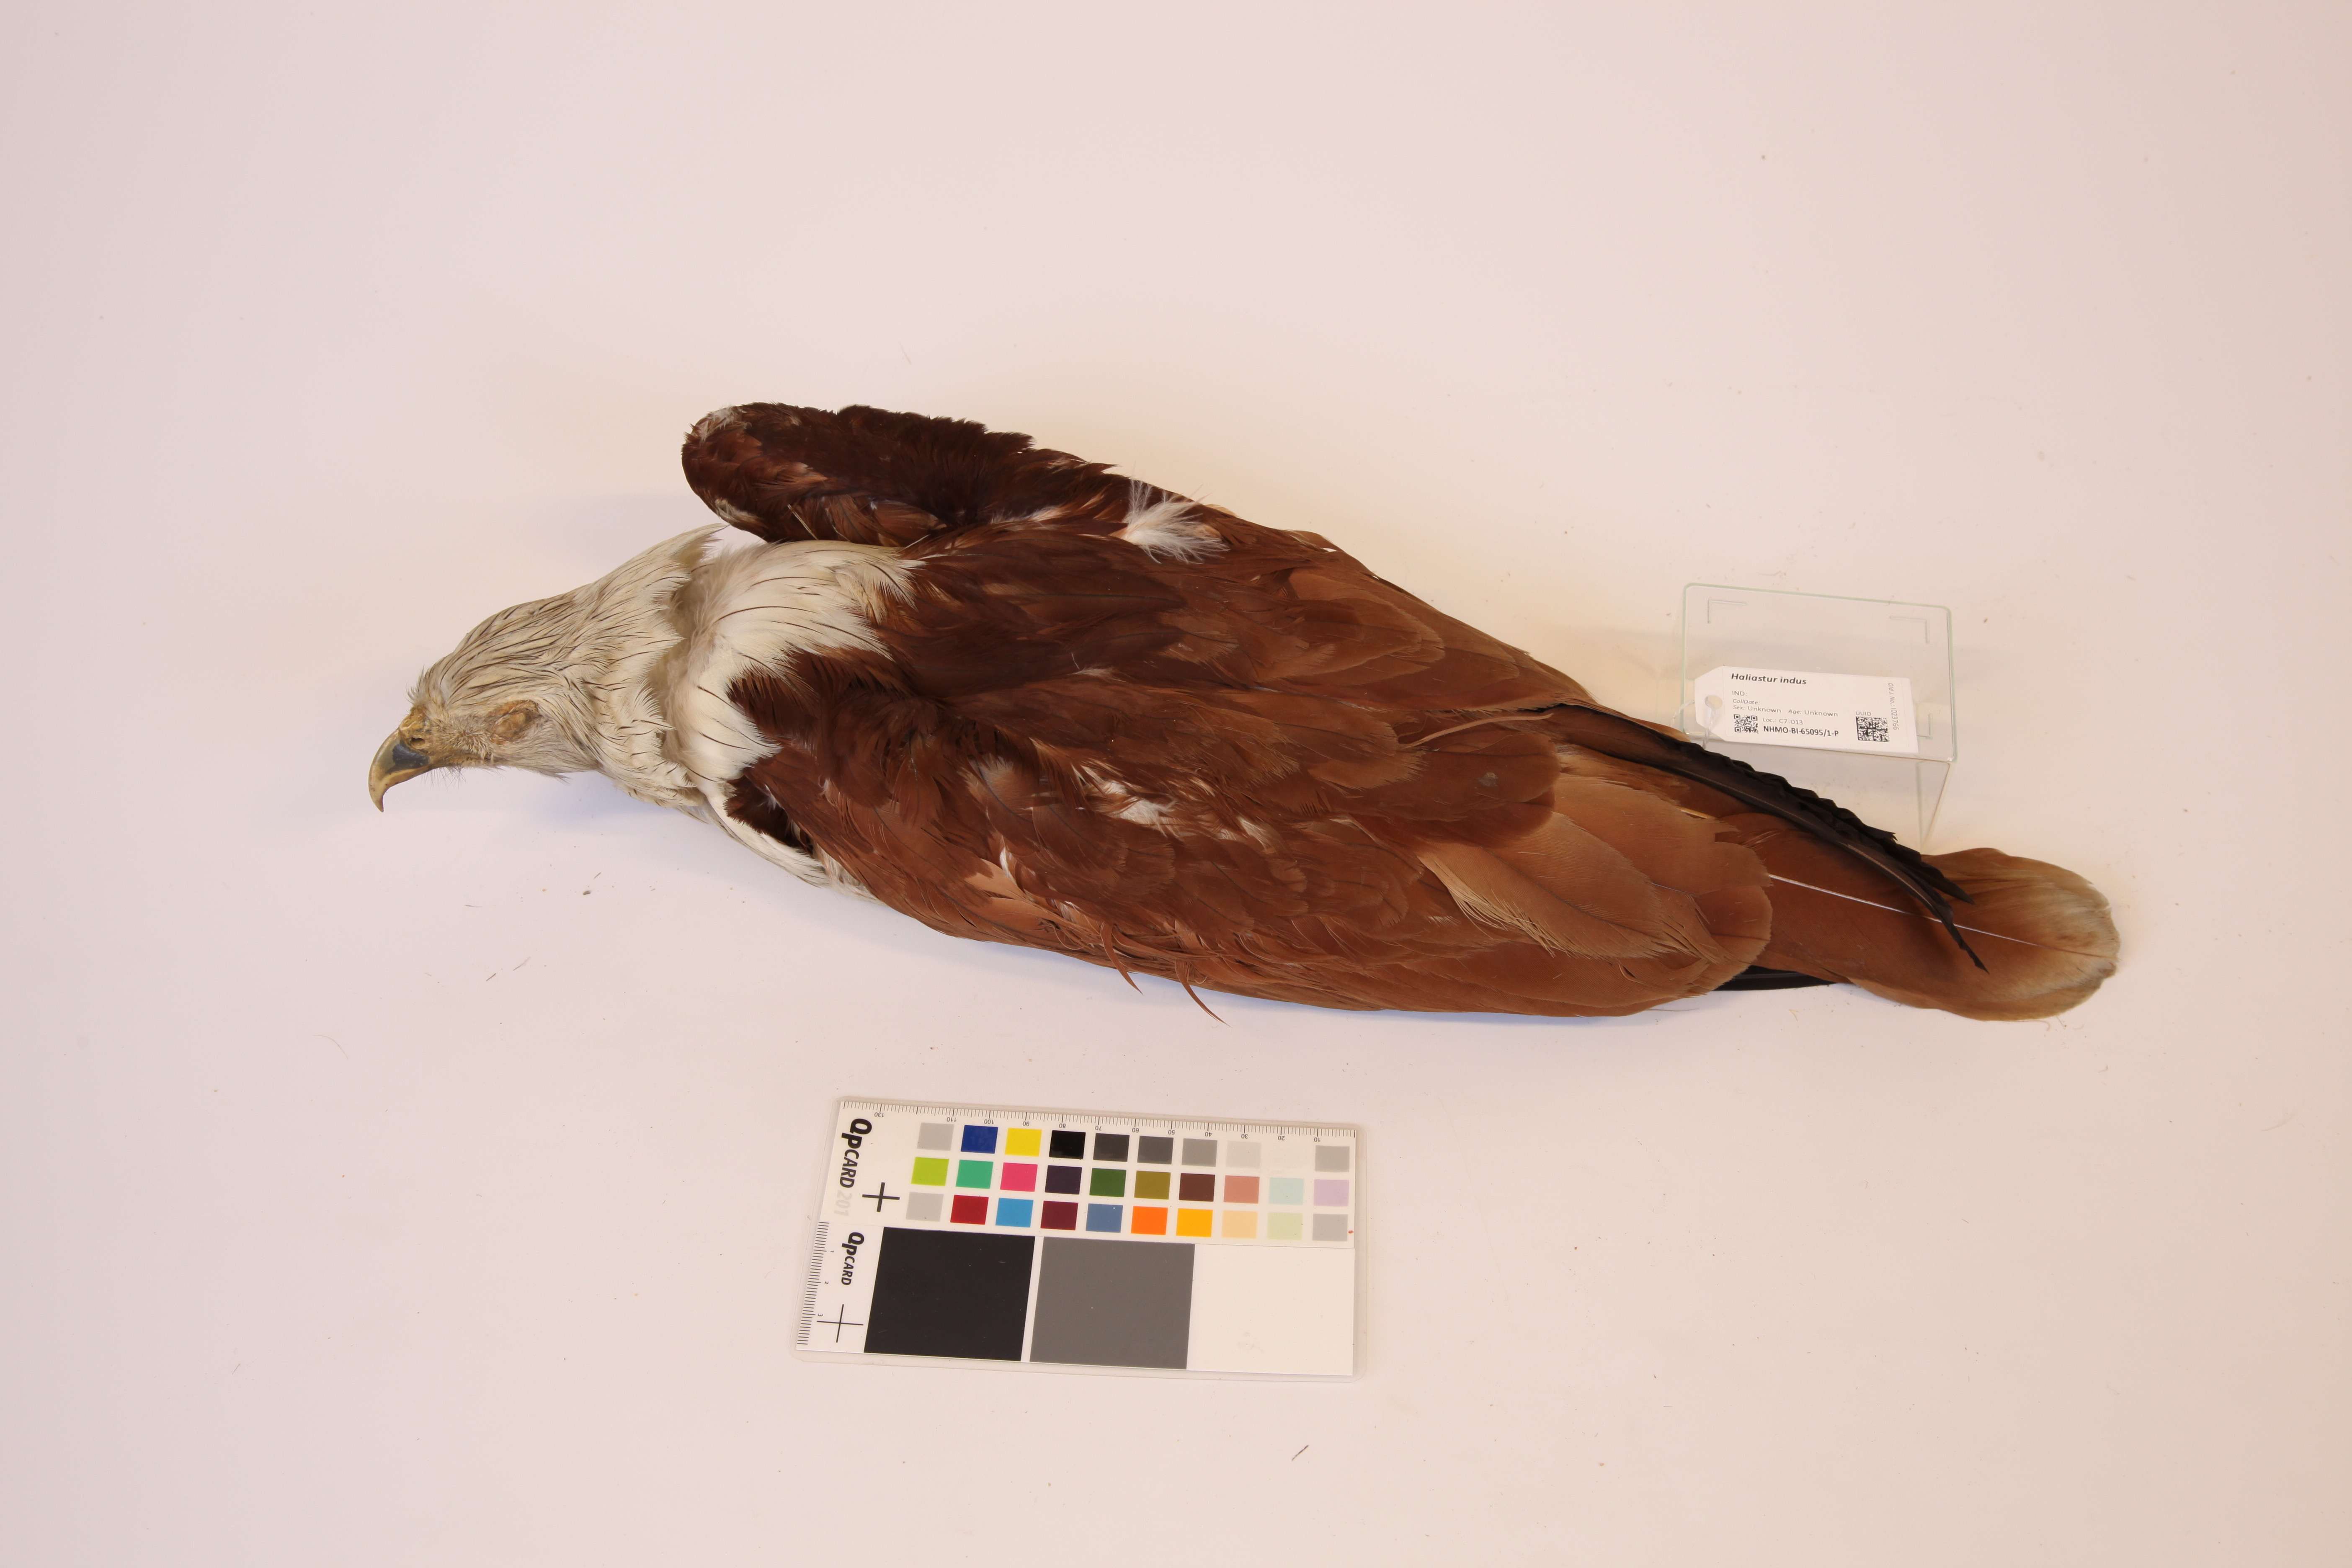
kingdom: Animalia
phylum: Chordata
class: Aves
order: Accipitriformes
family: Accipitridae
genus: Haliastur
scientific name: Haliastur indus
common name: Brahminy kite
